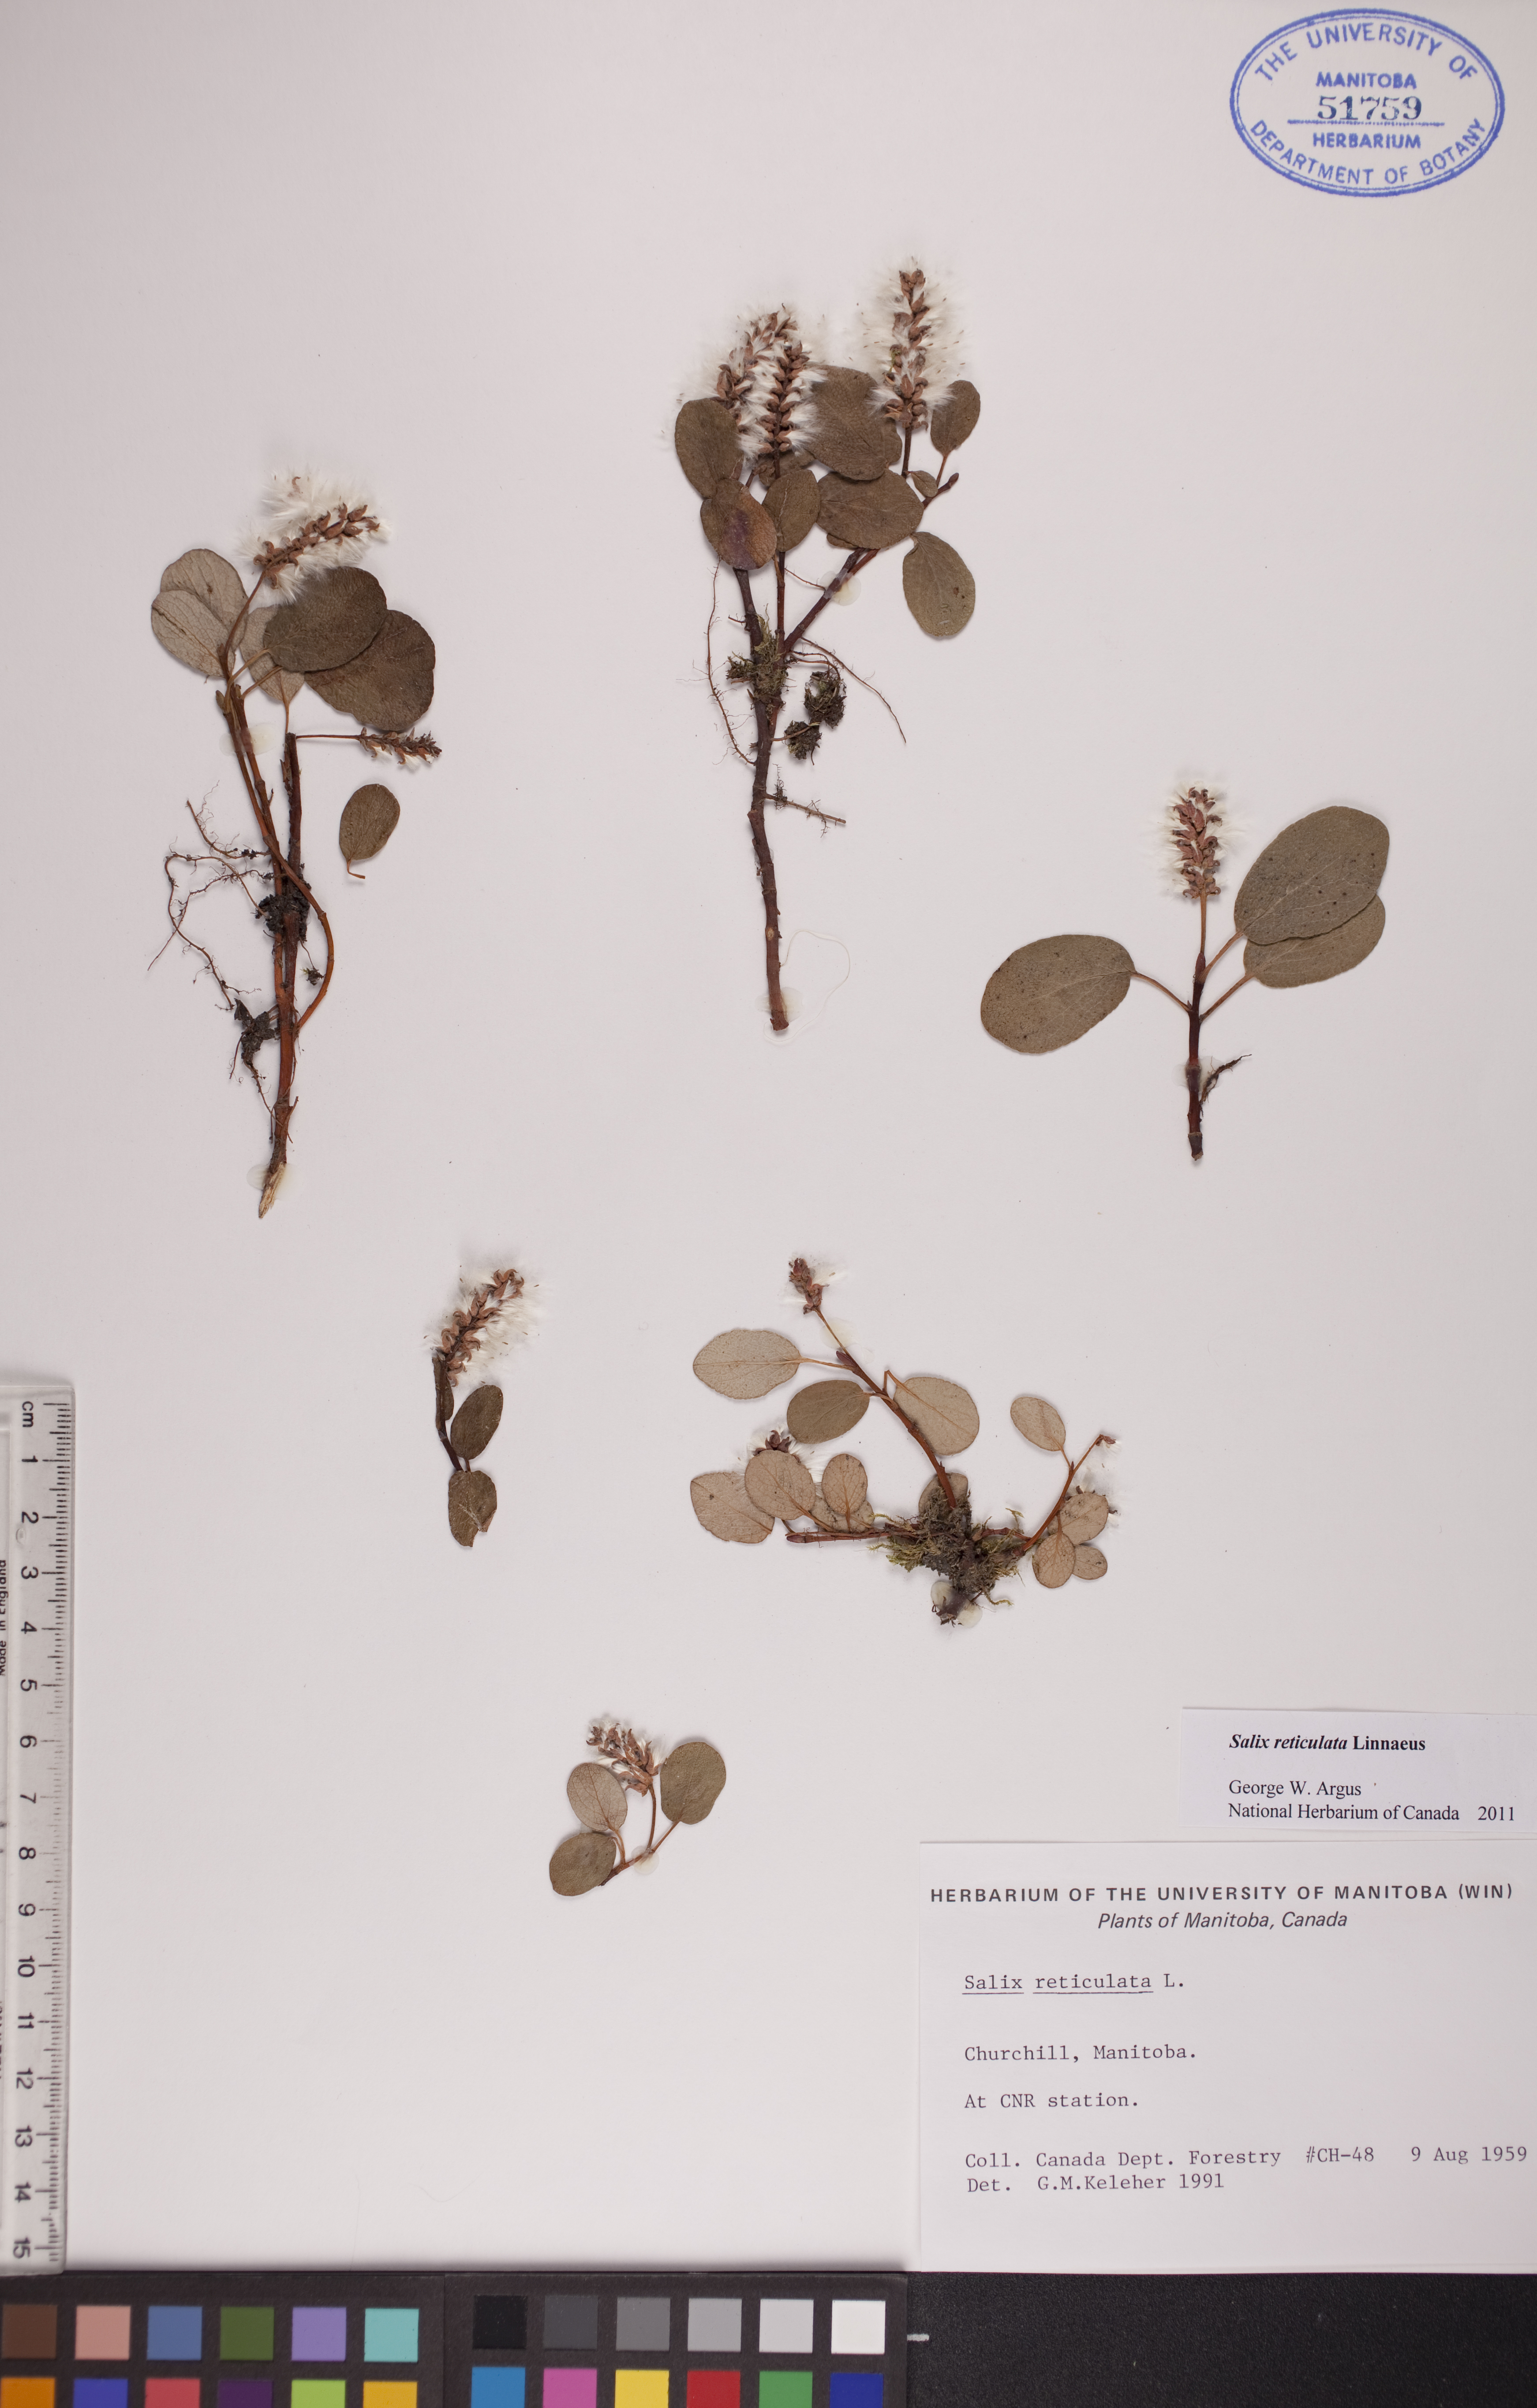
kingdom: Plantae
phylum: Tracheophyta
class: Magnoliopsida
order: Malpighiales
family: Salicaceae
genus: Salix
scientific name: Salix reticulata
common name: Net-leaved willow
